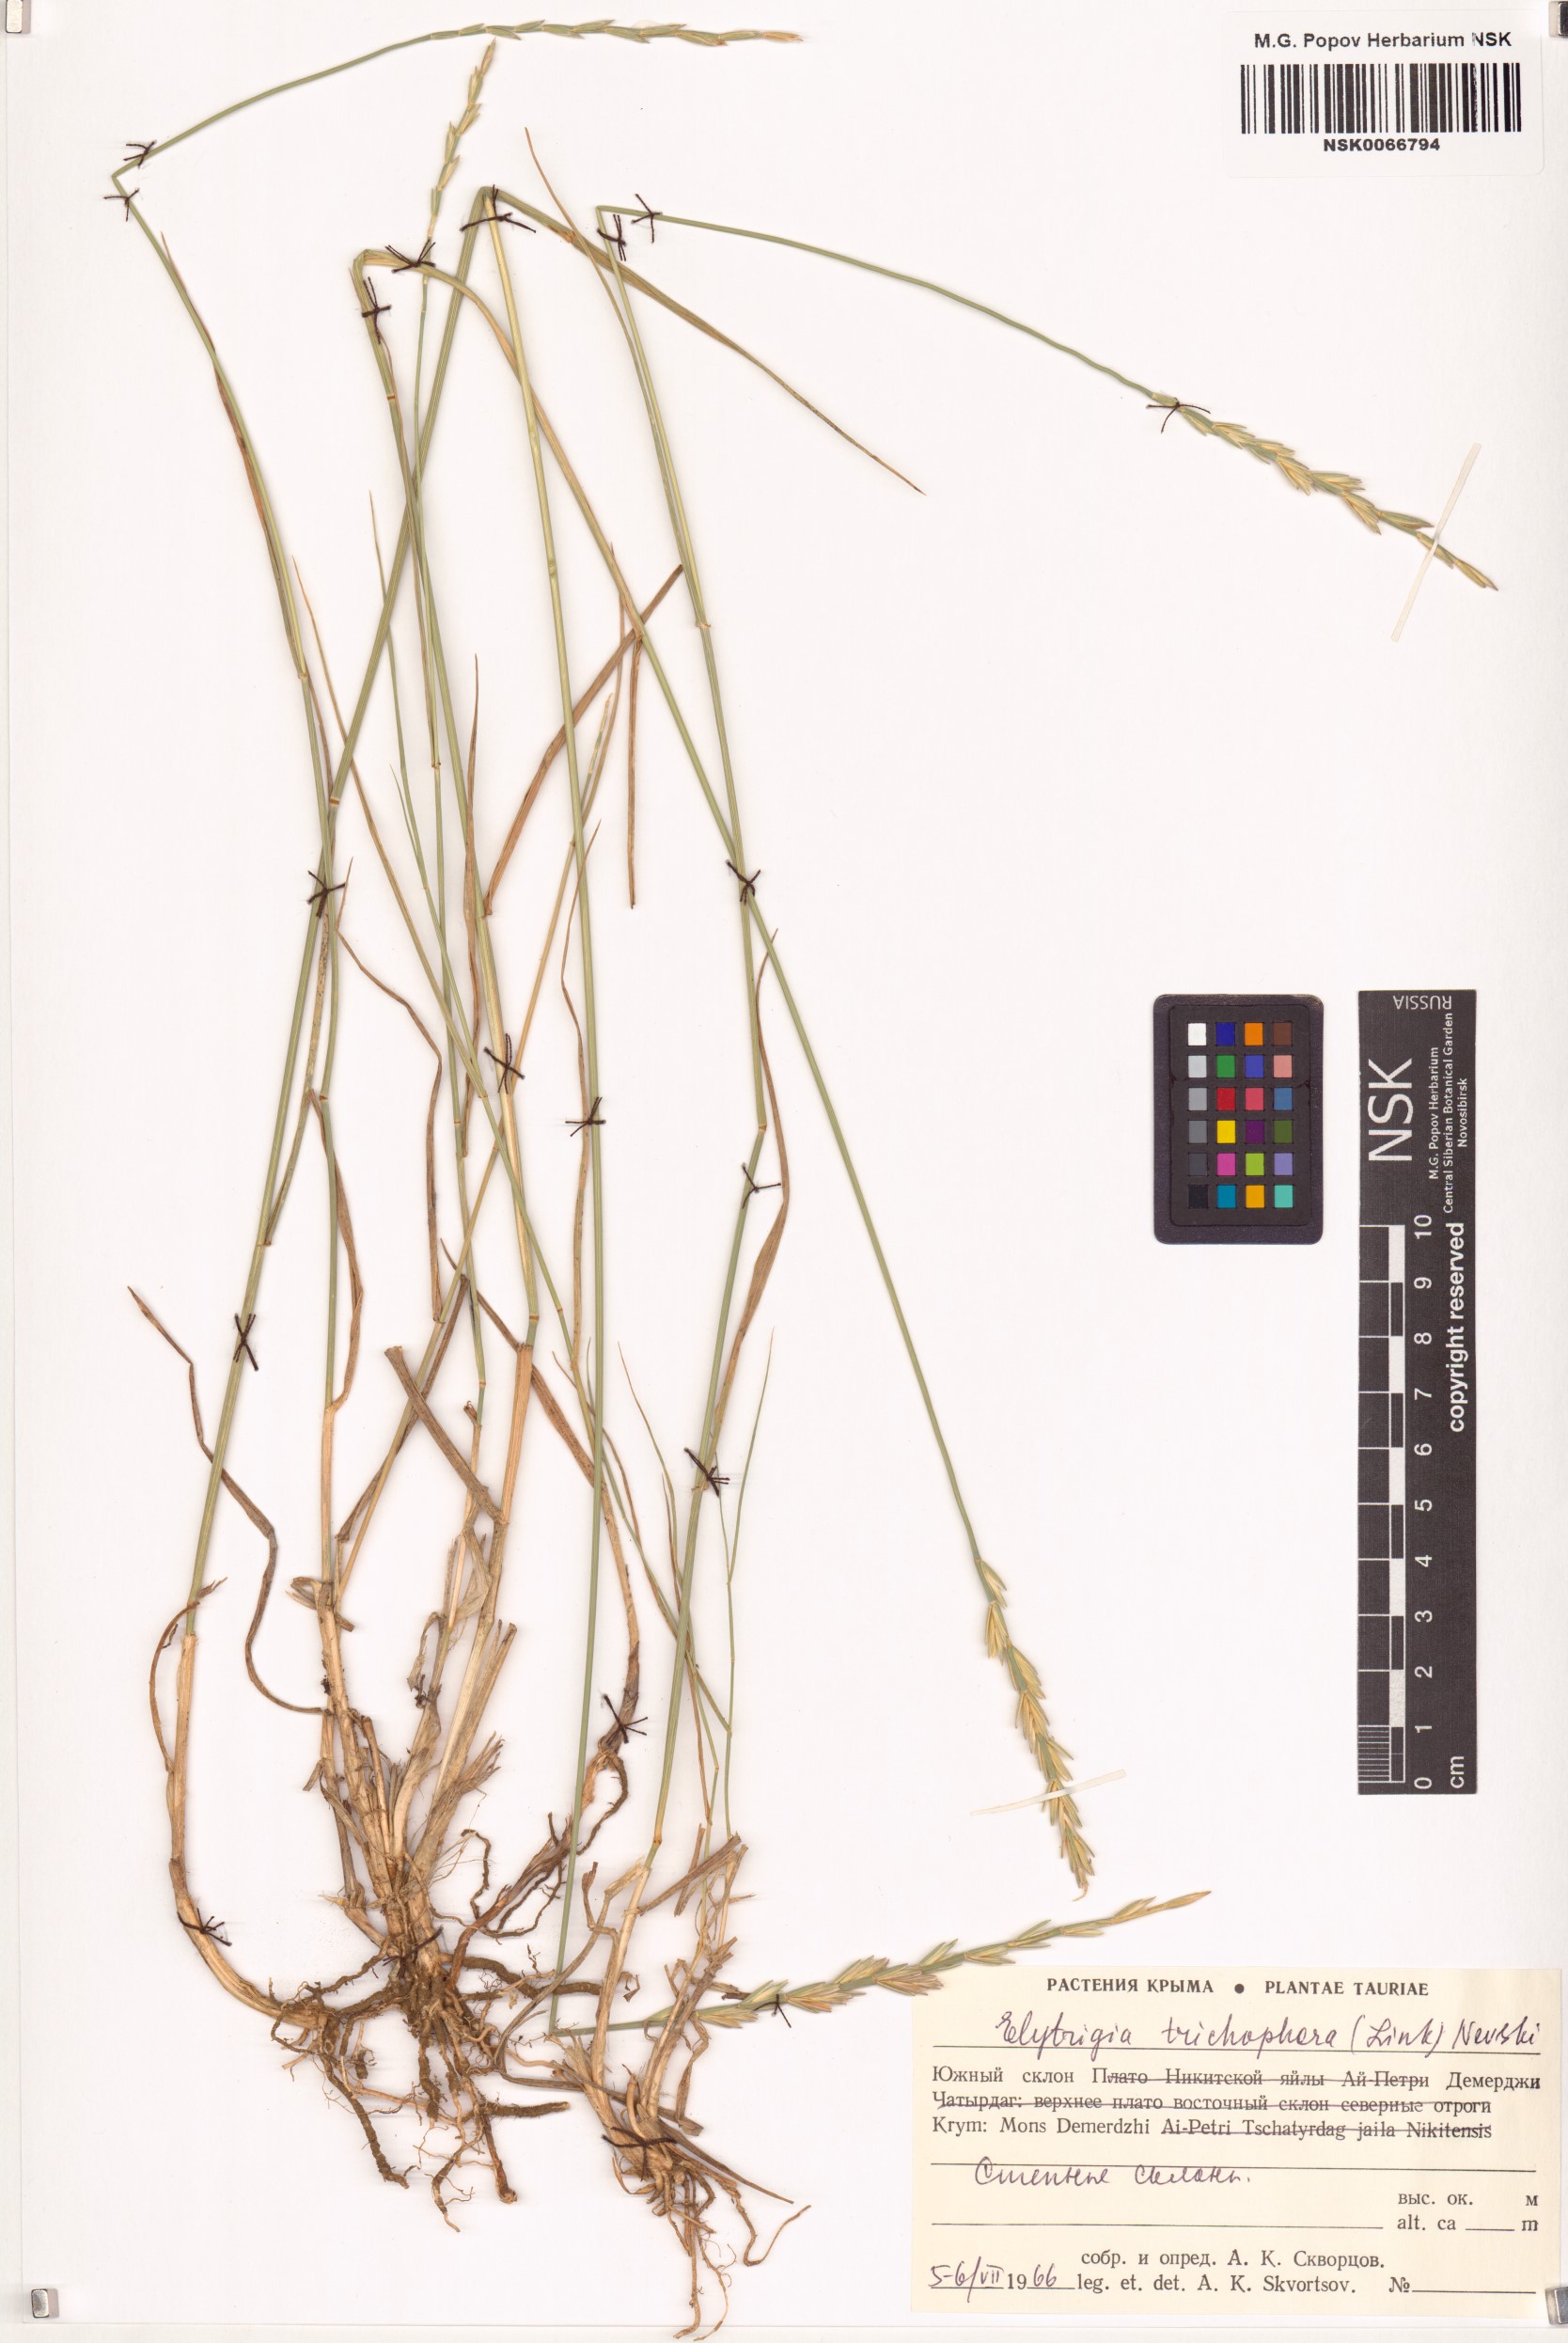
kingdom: Plantae
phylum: Tracheophyta
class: Liliopsida
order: Poales
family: Poaceae
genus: Thinopyrum
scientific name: Thinopyrum intermedium
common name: Intermediate wheatgrass
